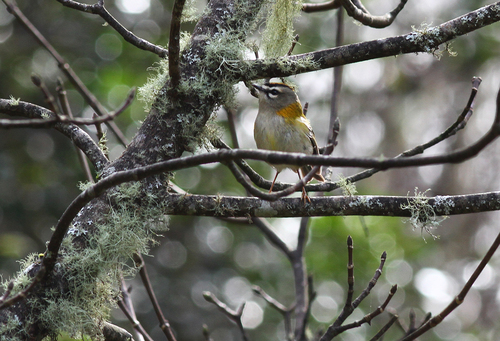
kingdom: Animalia
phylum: Chordata
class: Aves
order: Passeriformes
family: Regulidae
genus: Regulus
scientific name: Regulus madeirensis
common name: Madeira firecrest
